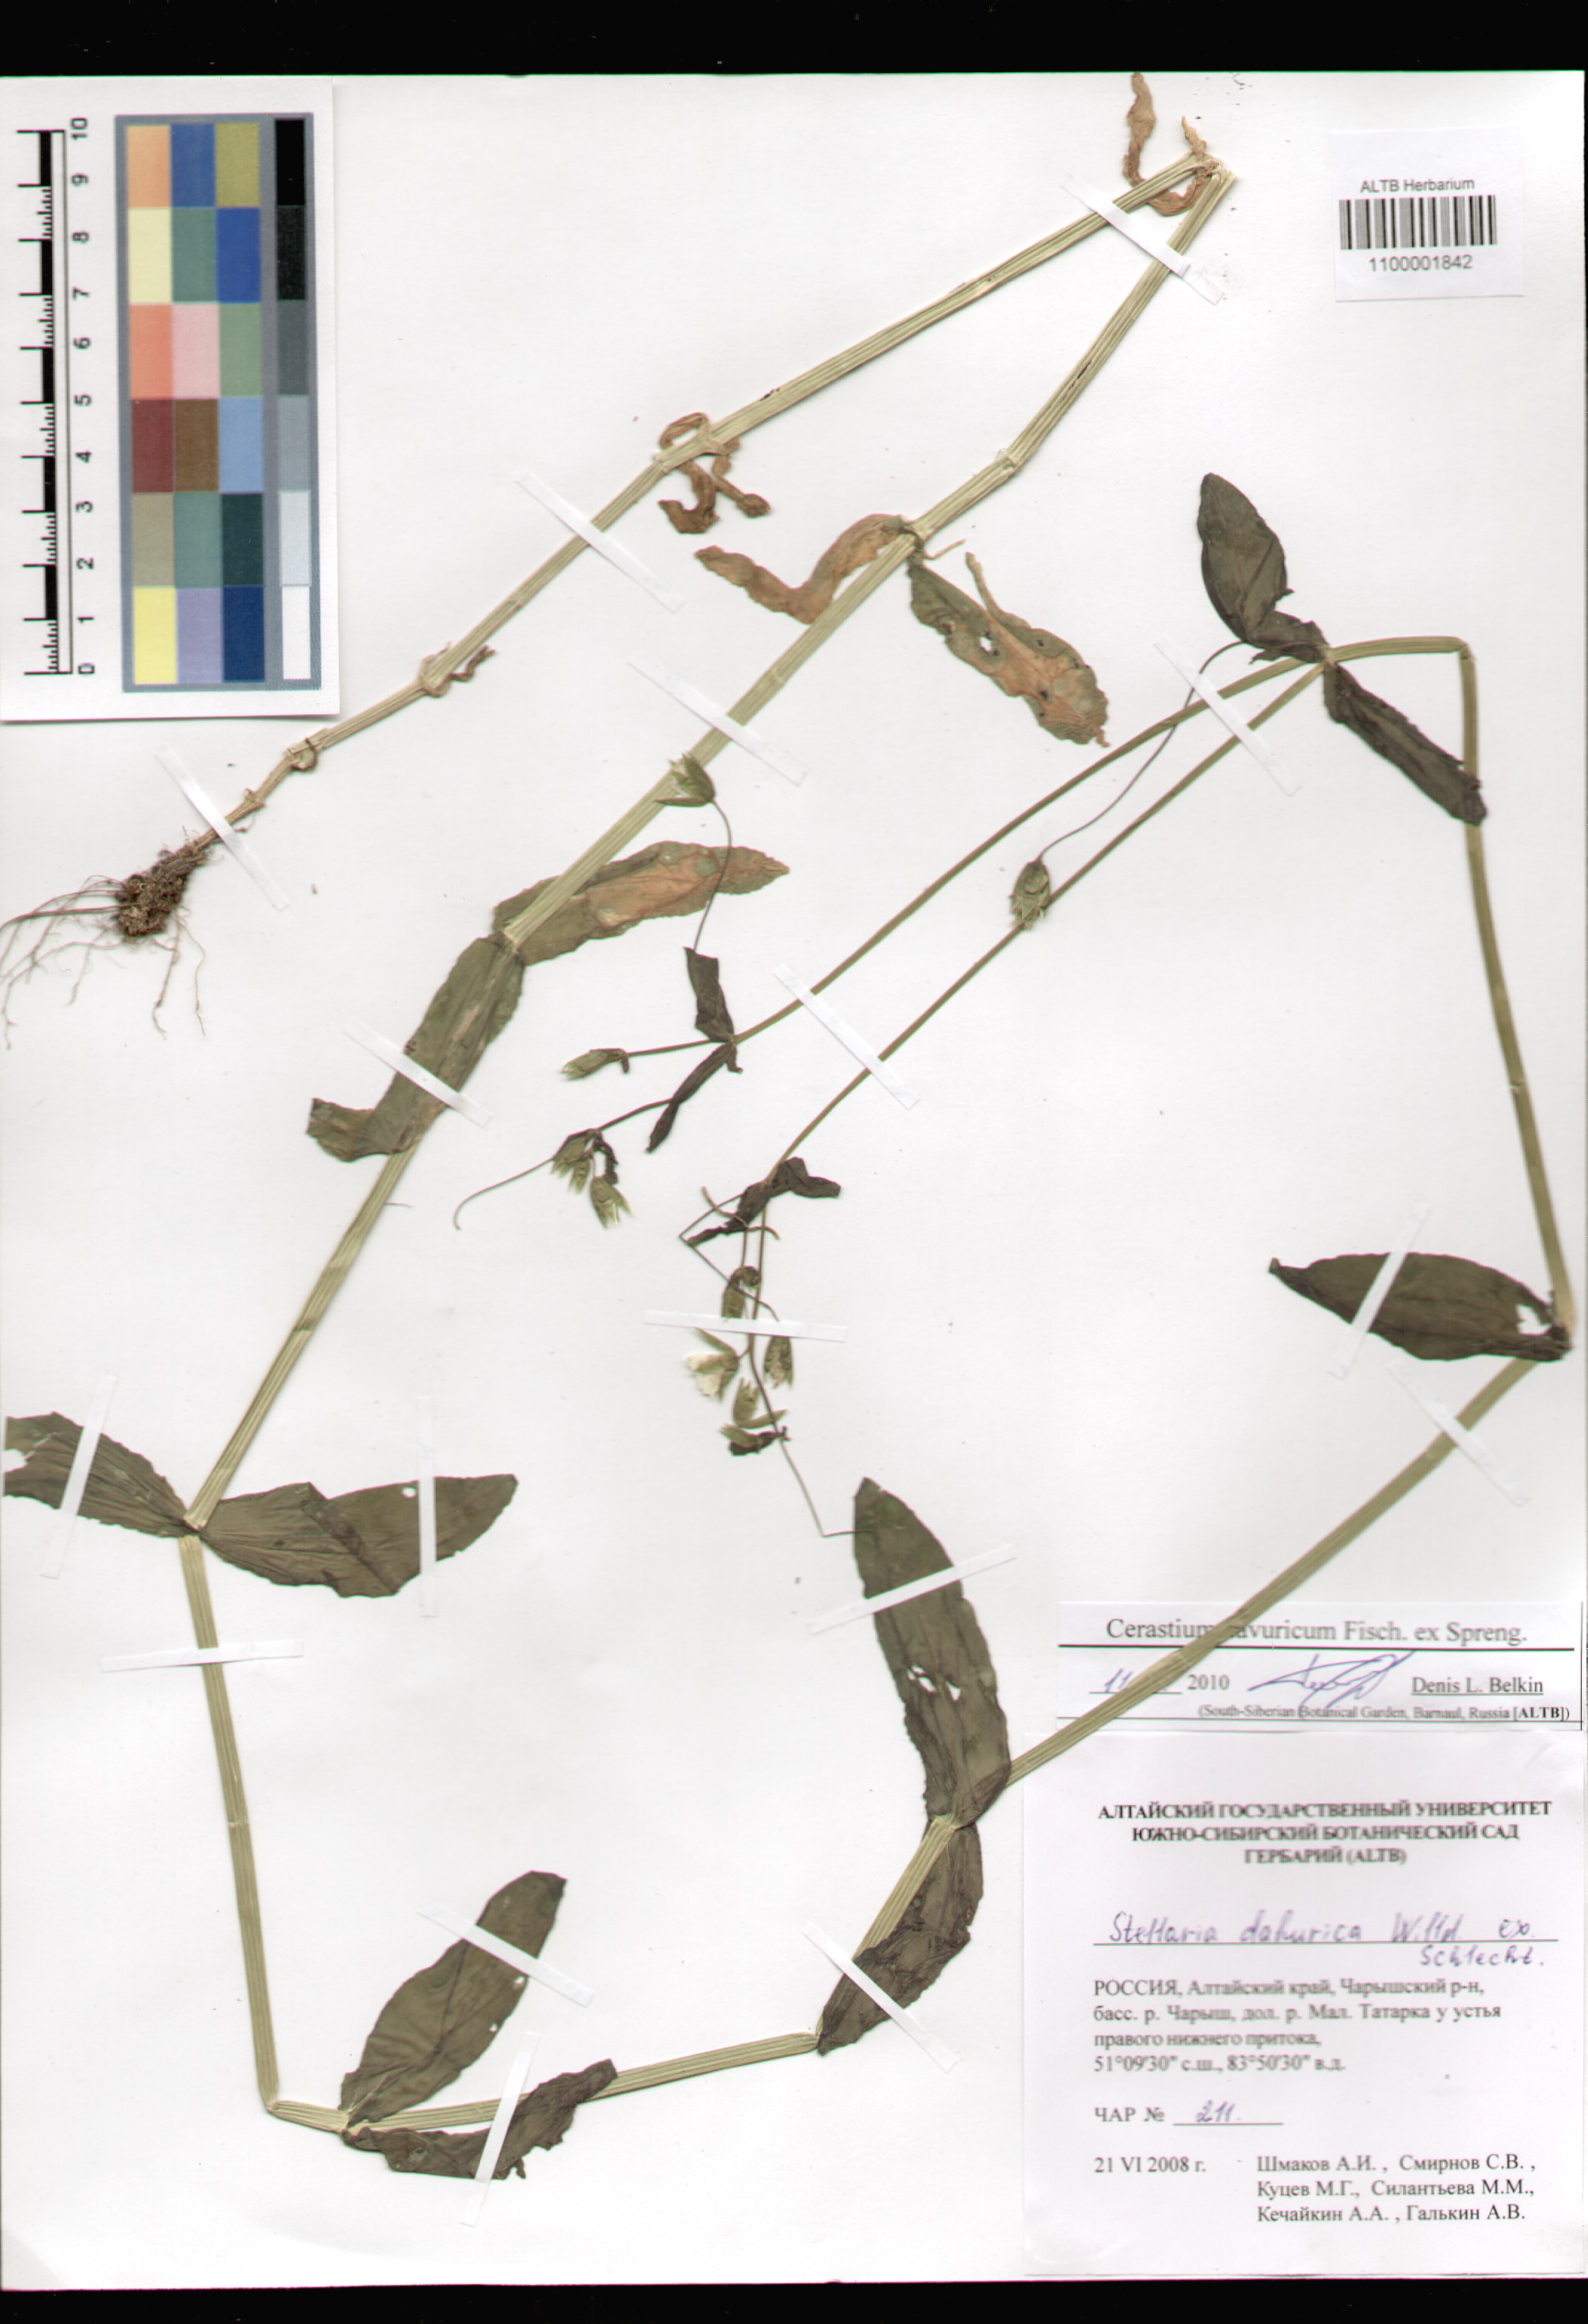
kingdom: Plantae
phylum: Tracheophyta
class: Magnoliopsida
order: Caryophyllales
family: Caryophyllaceae
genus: Dichodon
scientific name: Dichodon davuricum
